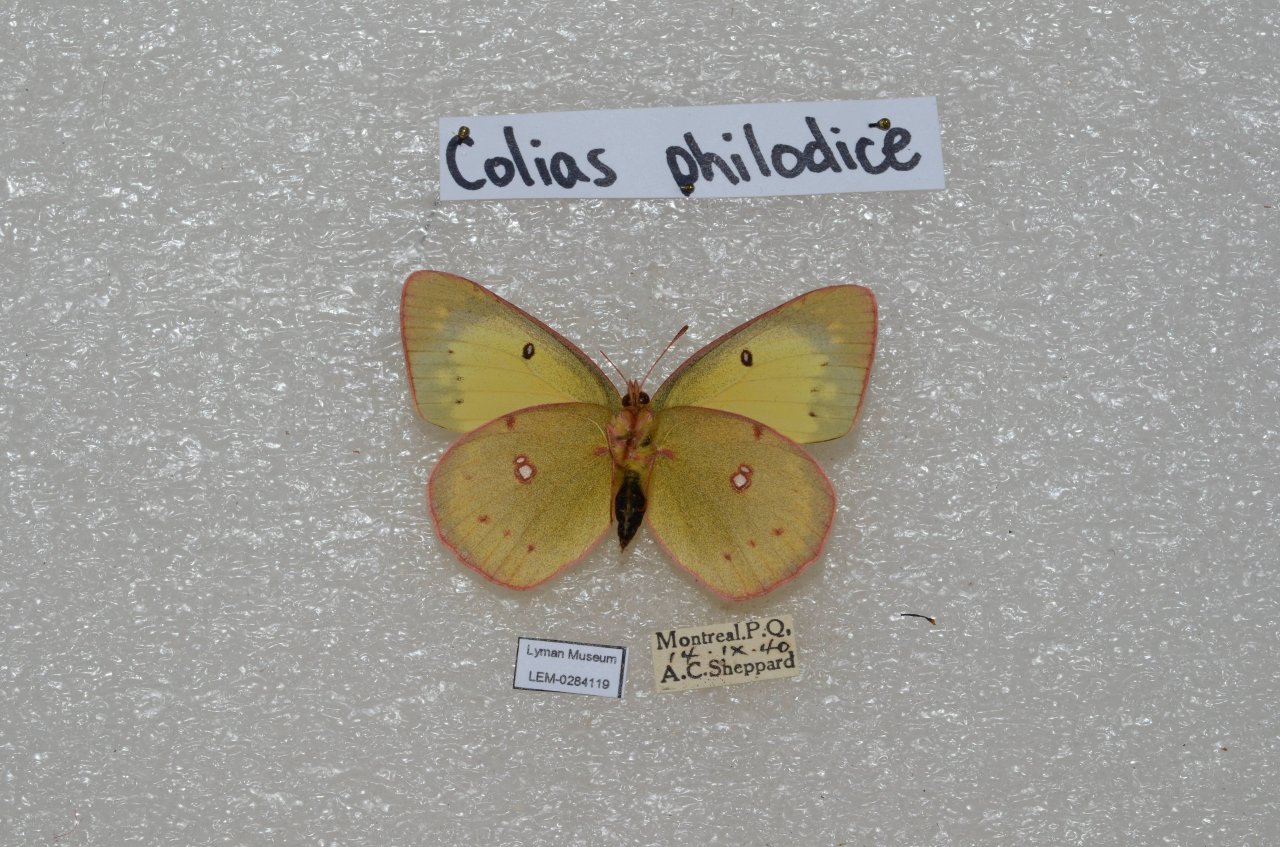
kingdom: Animalia
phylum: Arthropoda
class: Insecta
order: Lepidoptera
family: Pieridae
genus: Colias
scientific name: Colias philodice
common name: Clouded Sulphur
